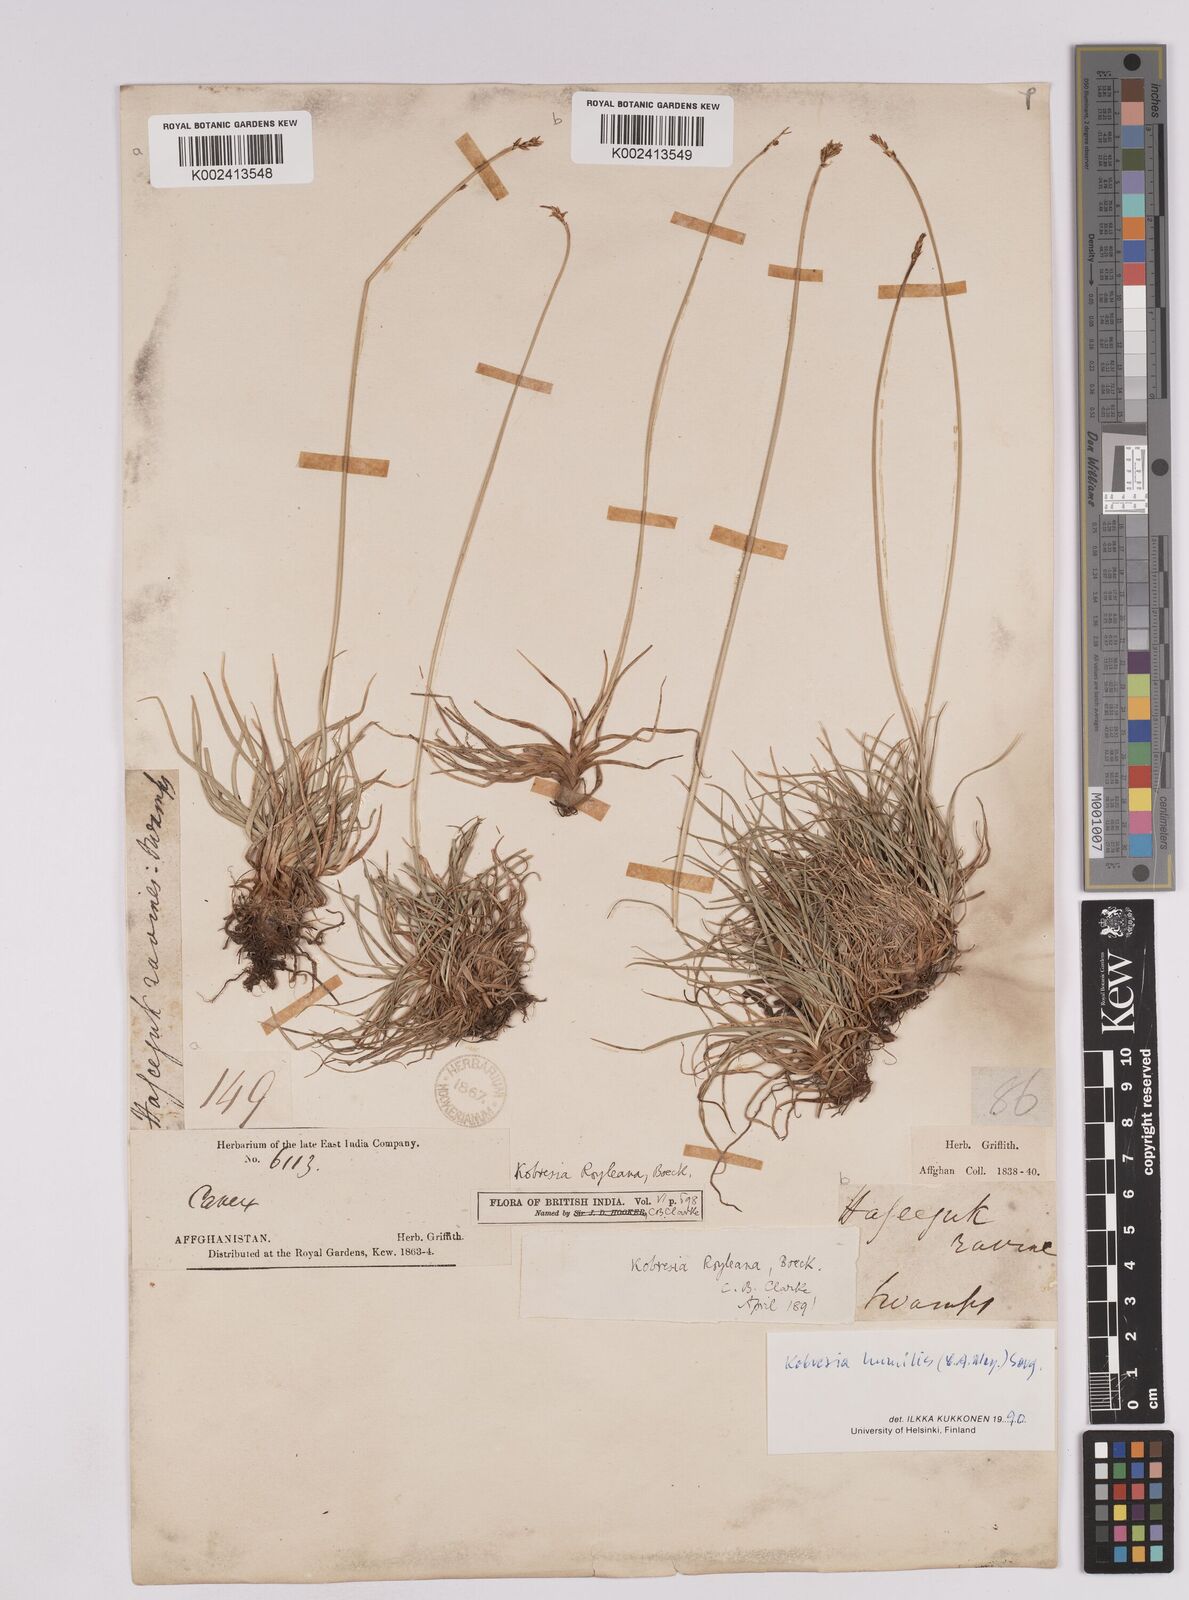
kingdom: Plantae
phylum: Tracheophyta
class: Liliopsida
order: Poales
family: Cyperaceae
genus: Carex
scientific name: Carex alatauensis
